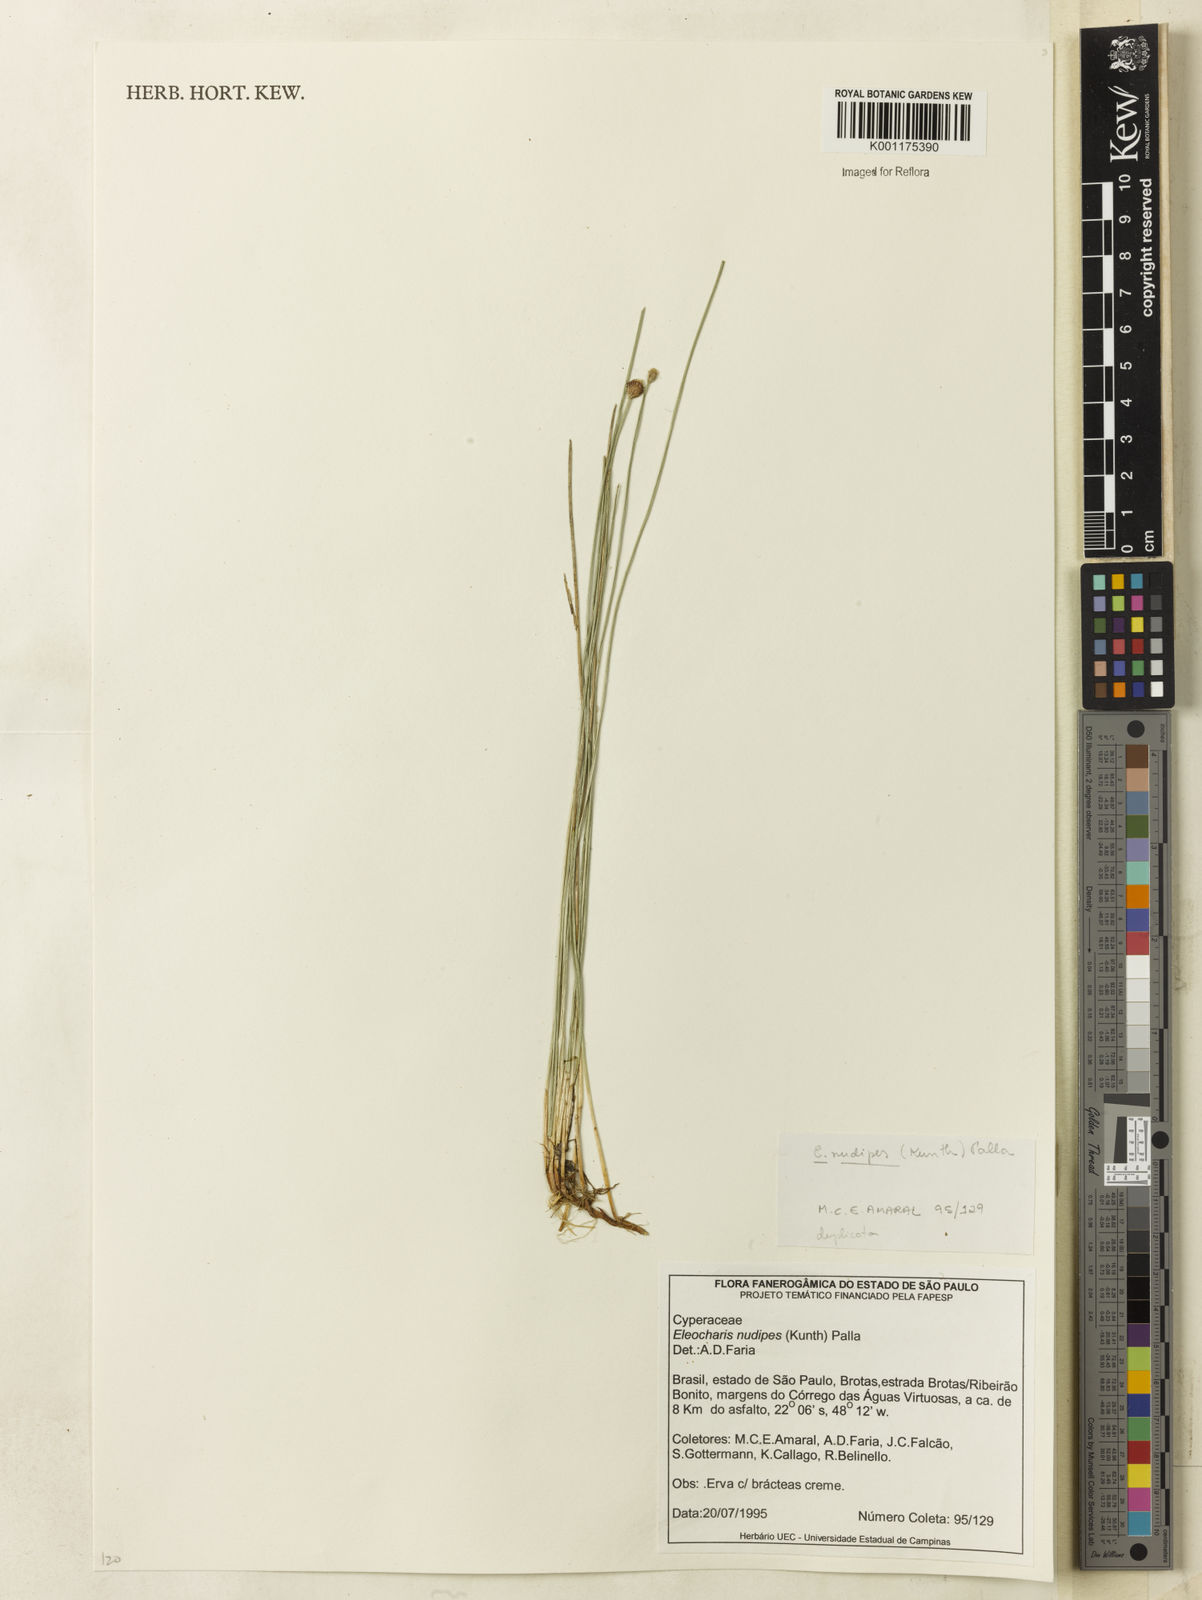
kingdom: Plantae
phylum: Tracheophyta
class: Liliopsida
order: Poales
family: Cyperaceae
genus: Eleocharis
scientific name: Eleocharis nudipes
